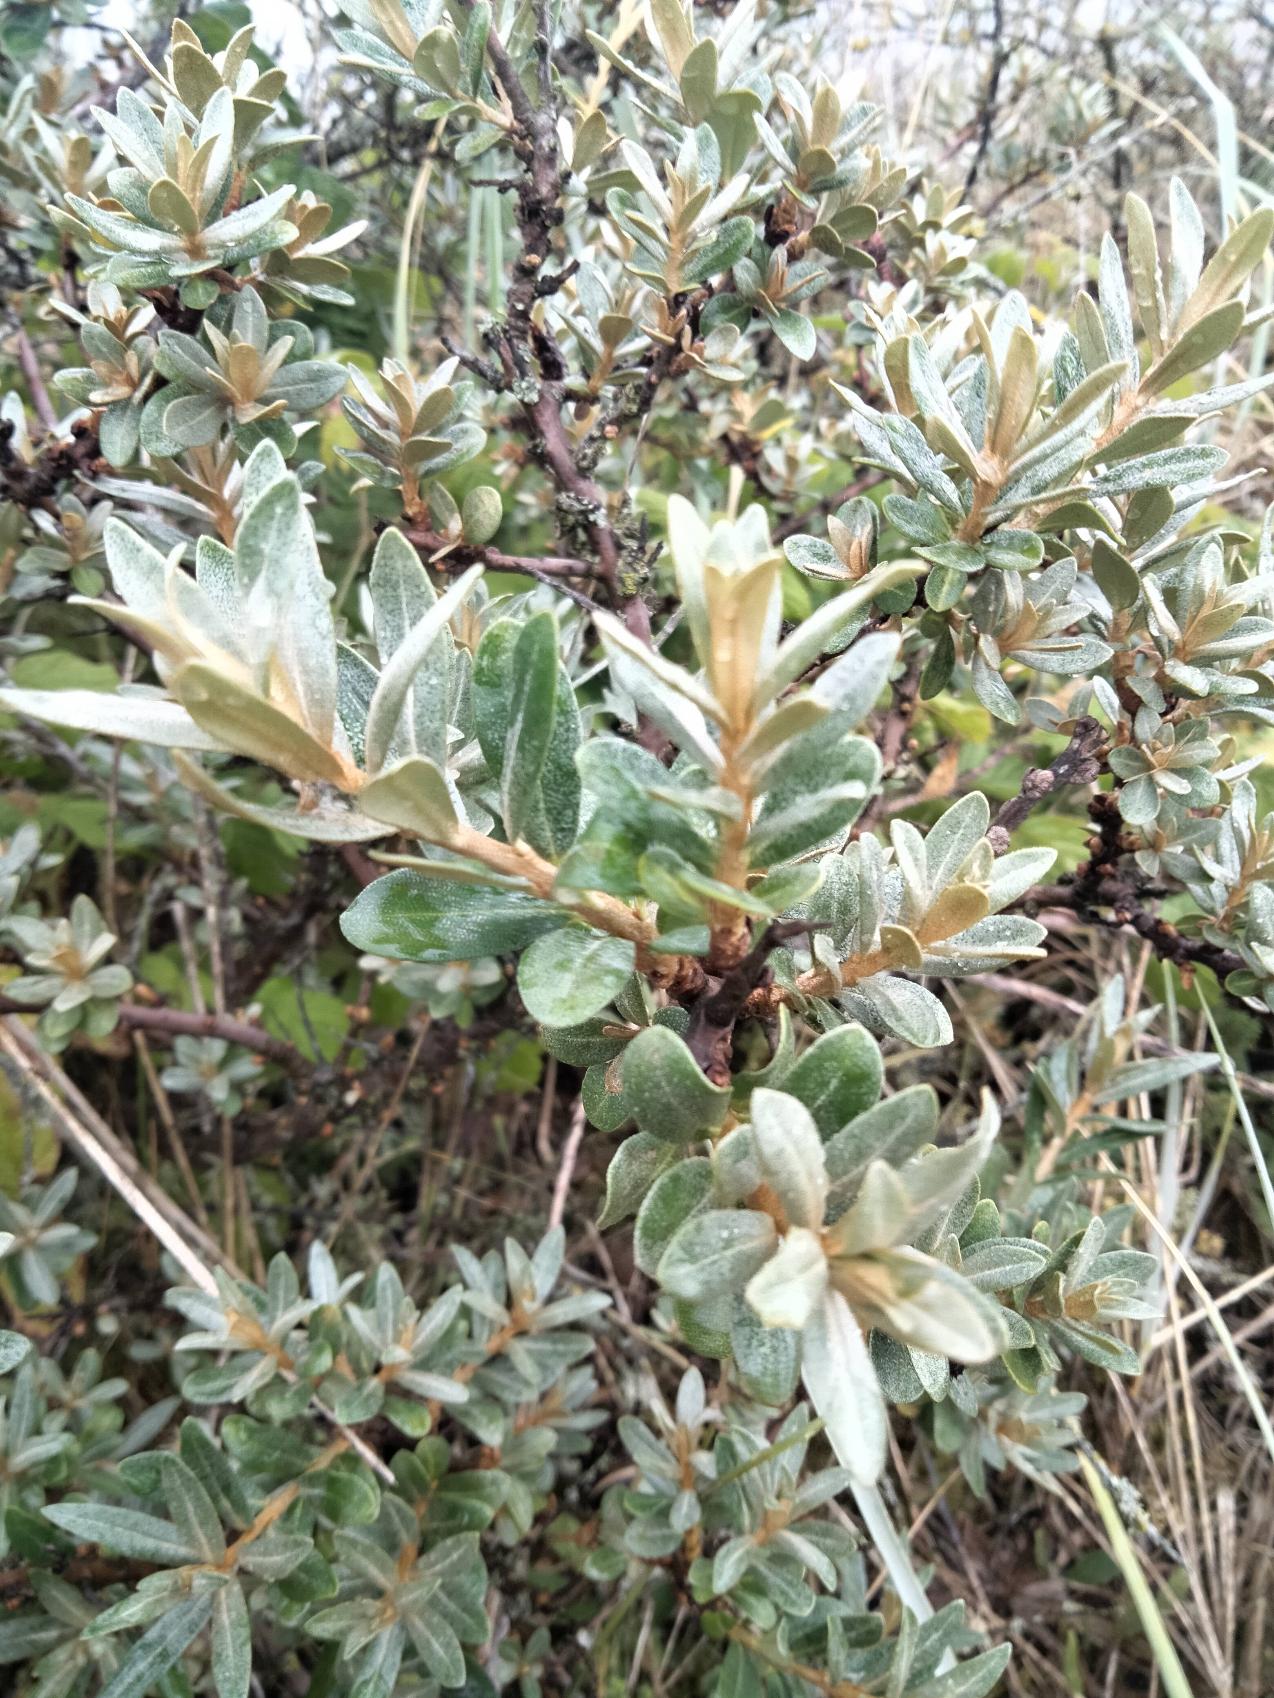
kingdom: Plantae
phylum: Tracheophyta
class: Magnoliopsida
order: Rosales
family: Elaeagnaceae
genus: Hippophae
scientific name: Hippophae rhamnoides
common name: Havtorn
